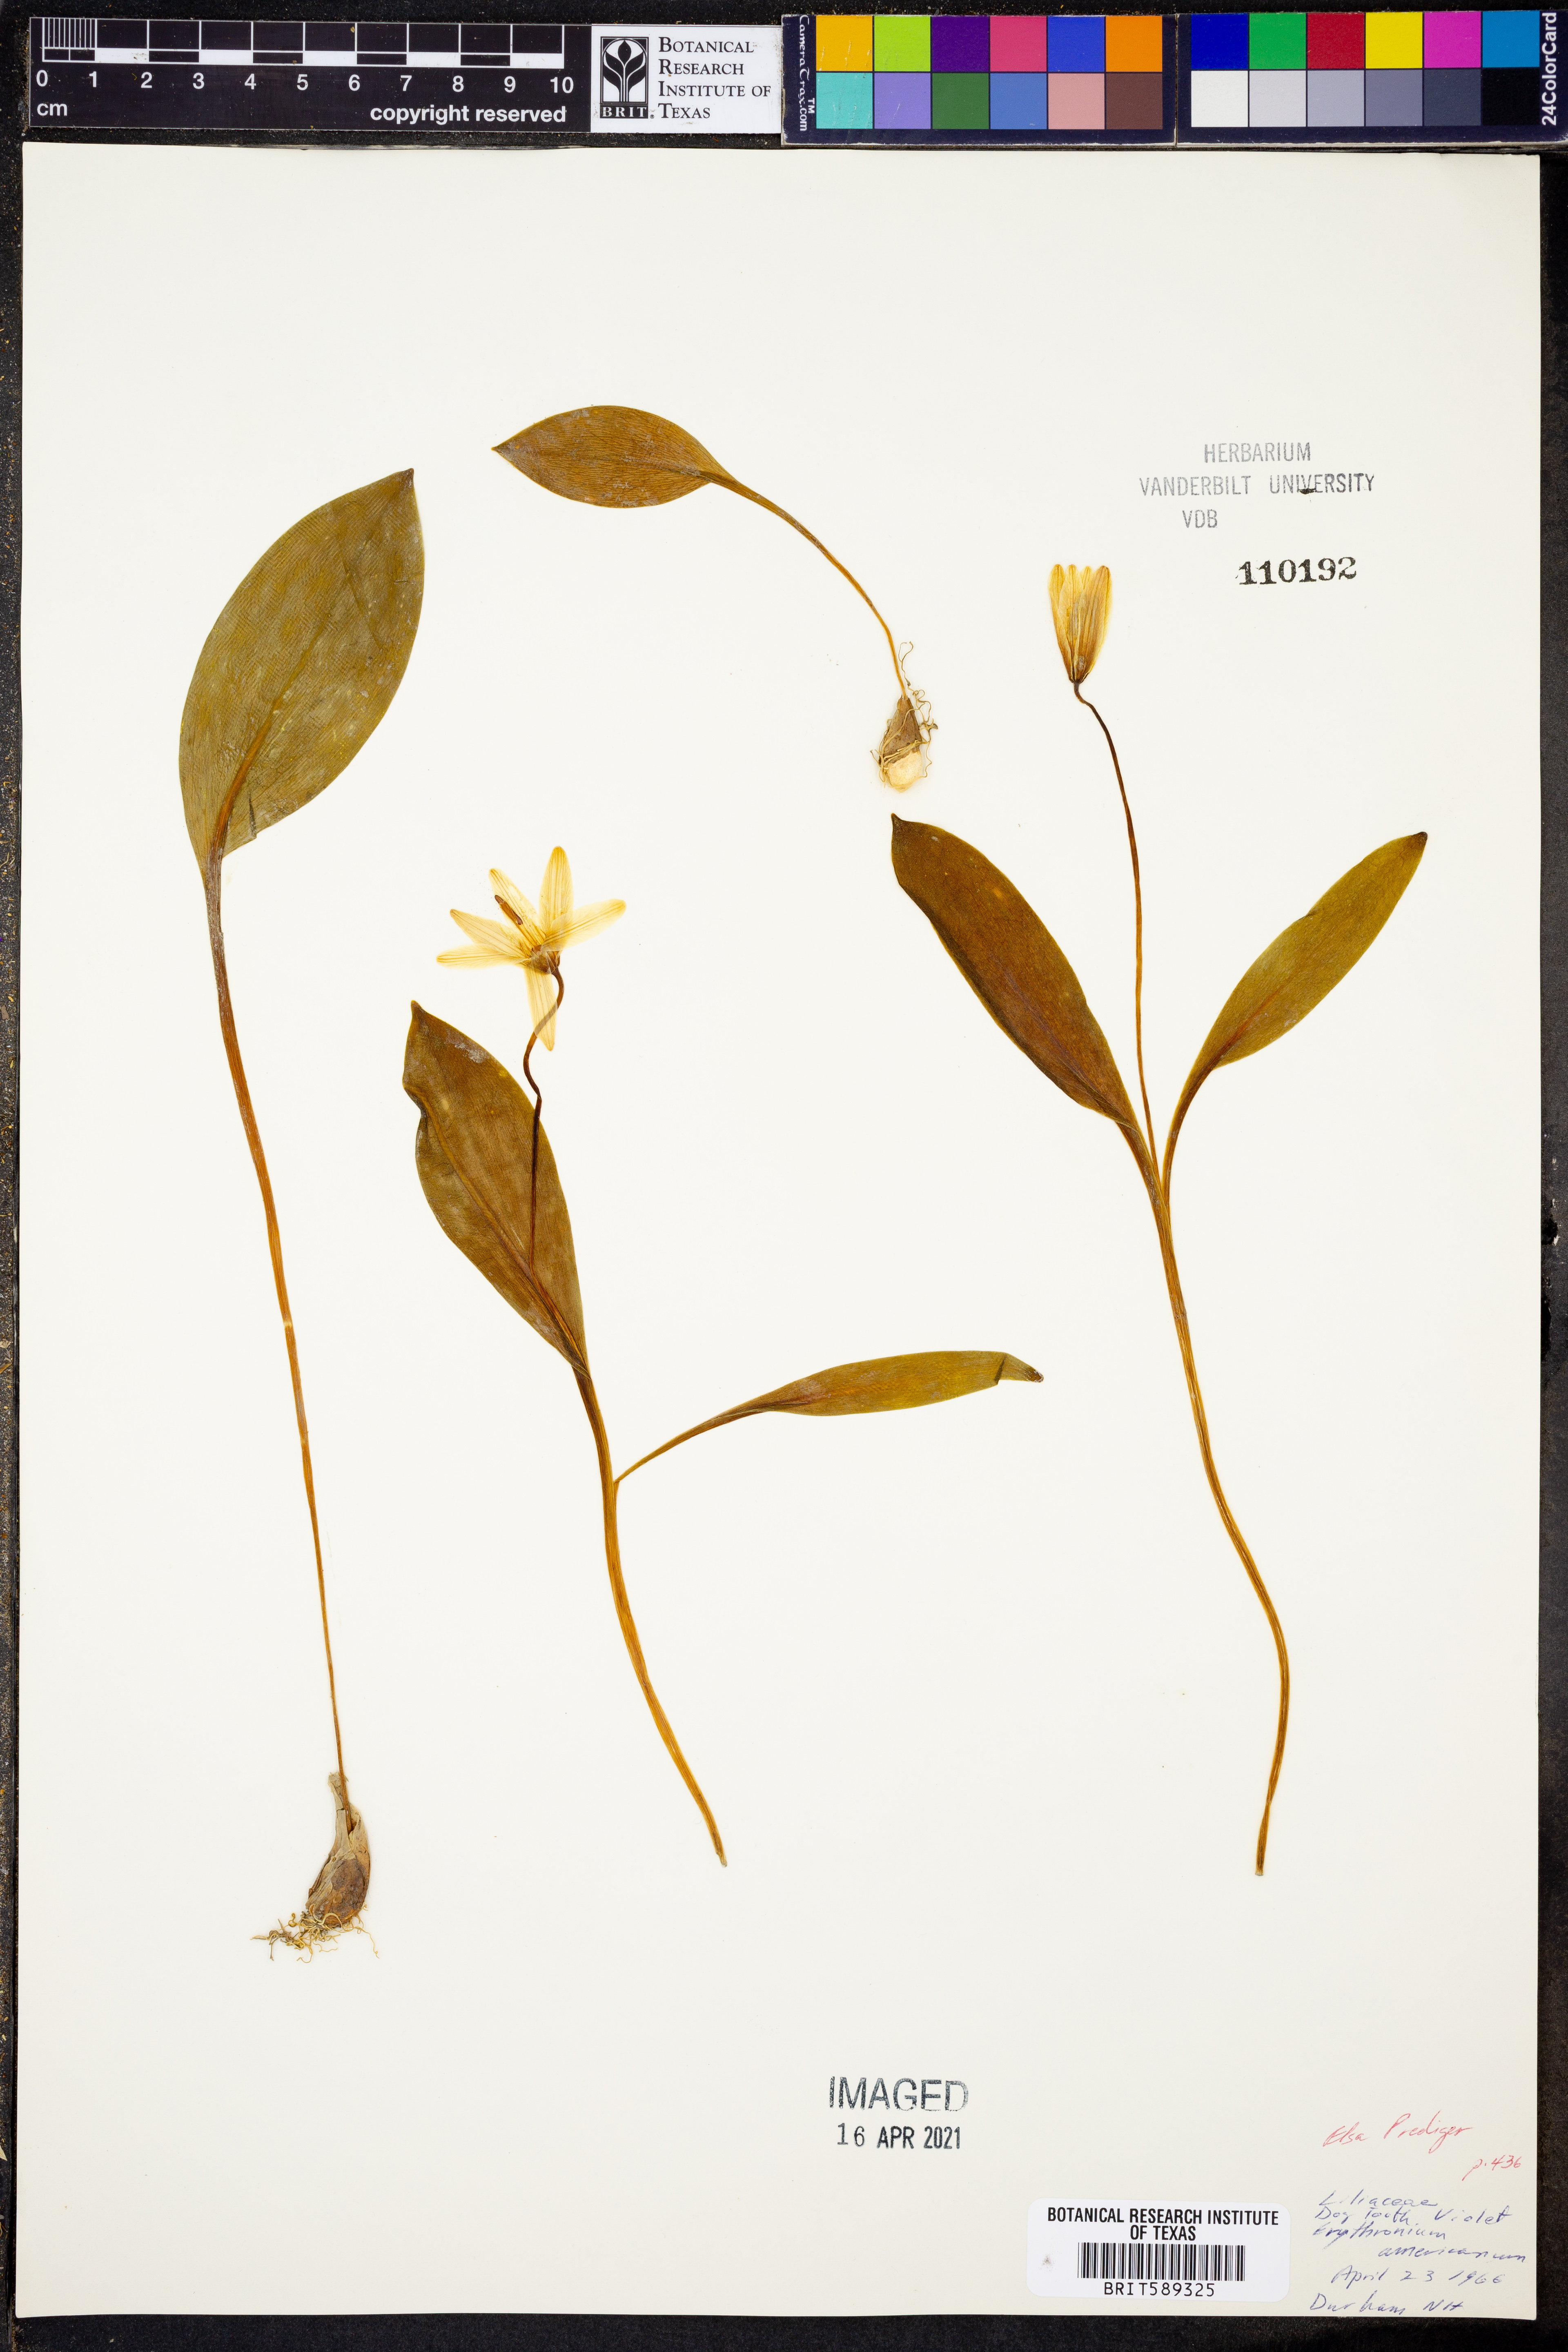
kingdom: Plantae
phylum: Tracheophyta
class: Liliopsida
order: Liliales
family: Liliaceae
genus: Erythronium
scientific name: Erythronium americanum
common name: Yellow adder's-tongue
